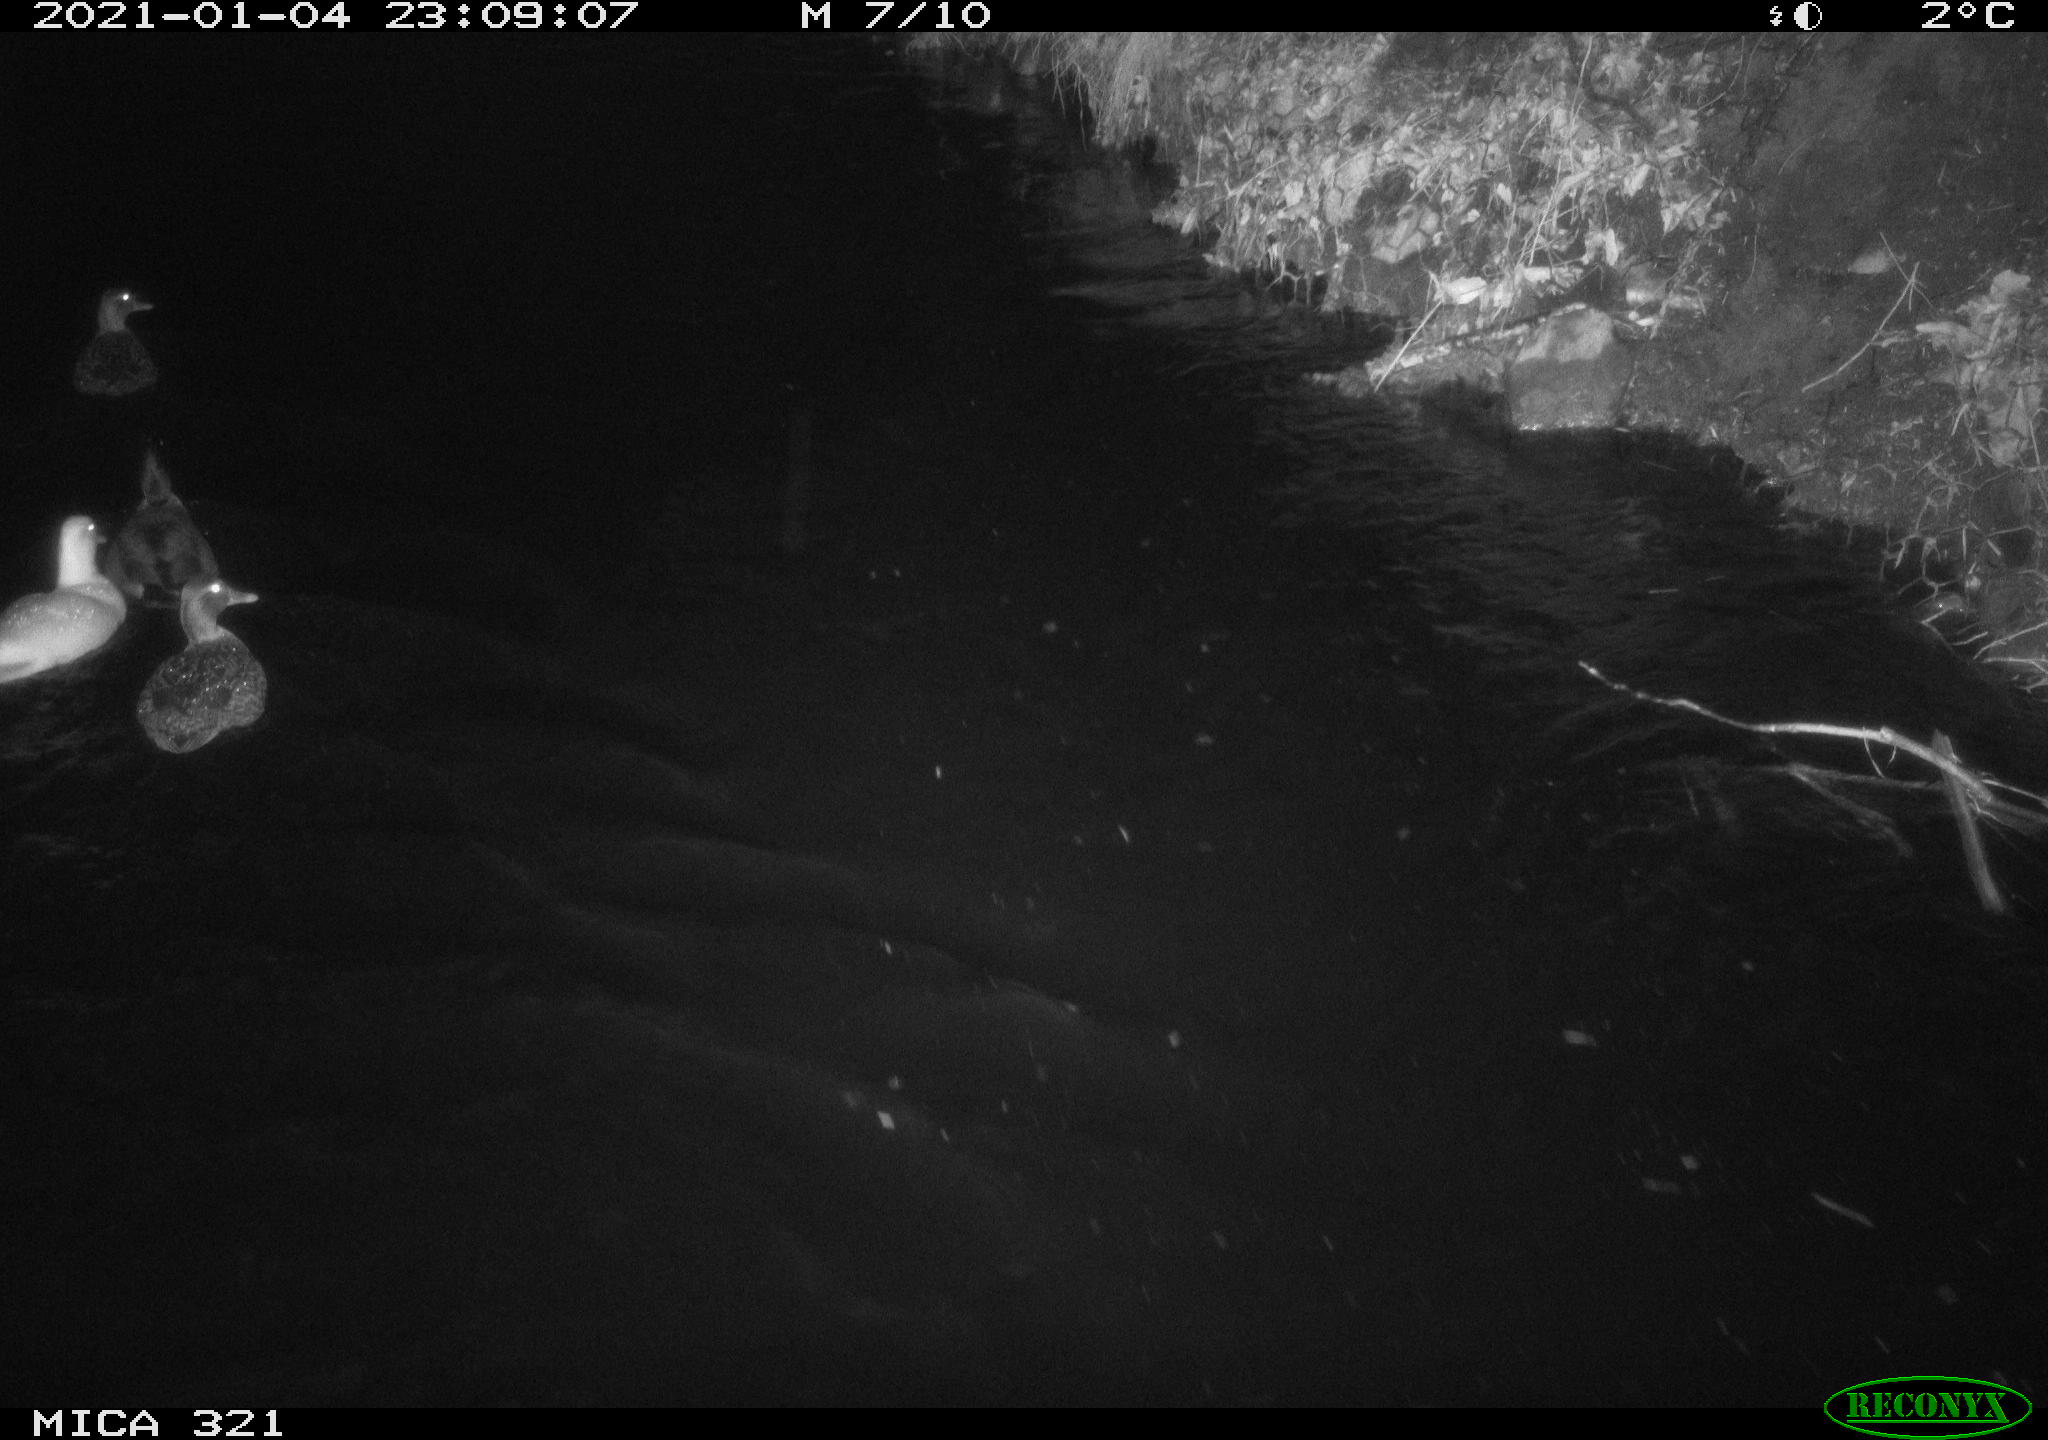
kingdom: Animalia
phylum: Chordata
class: Aves
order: Anseriformes
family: Anatidae
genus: Anas
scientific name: Anas platyrhynchos
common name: Mallard
